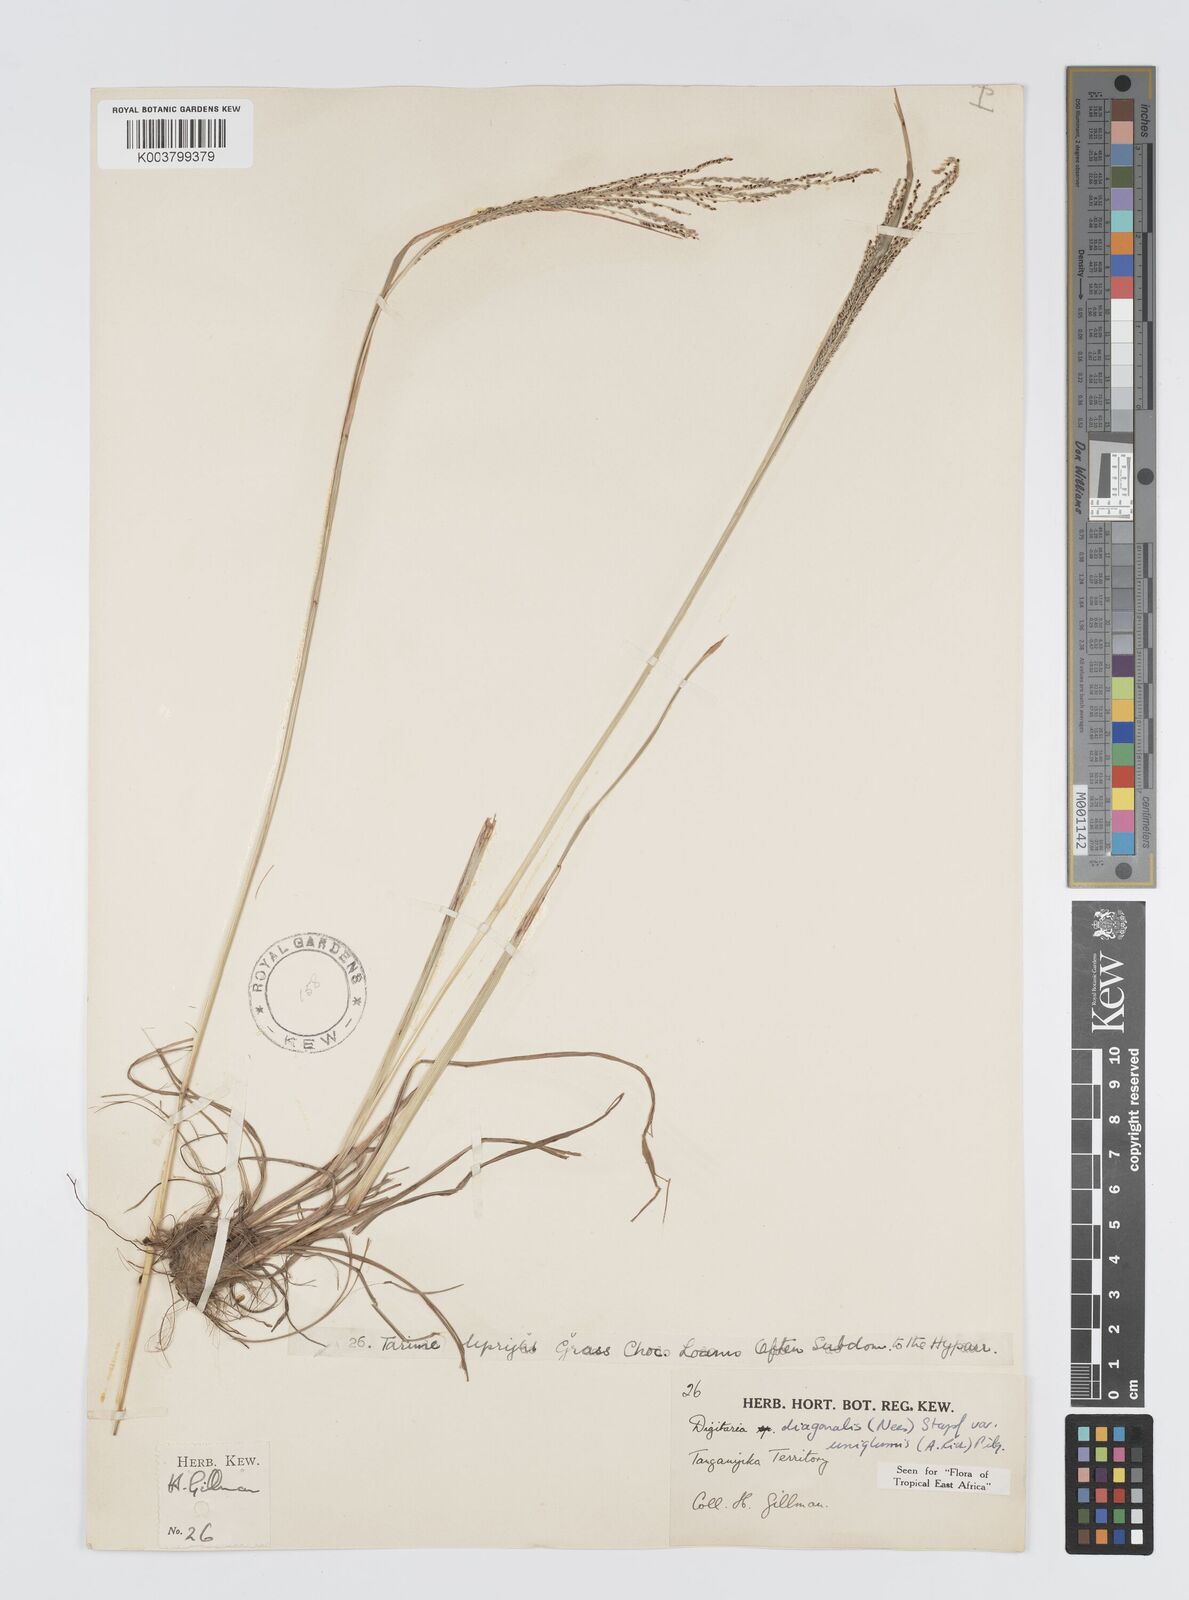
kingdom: Plantae
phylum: Tracheophyta
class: Liliopsida
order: Poales
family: Poaceae
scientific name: Poaceae
